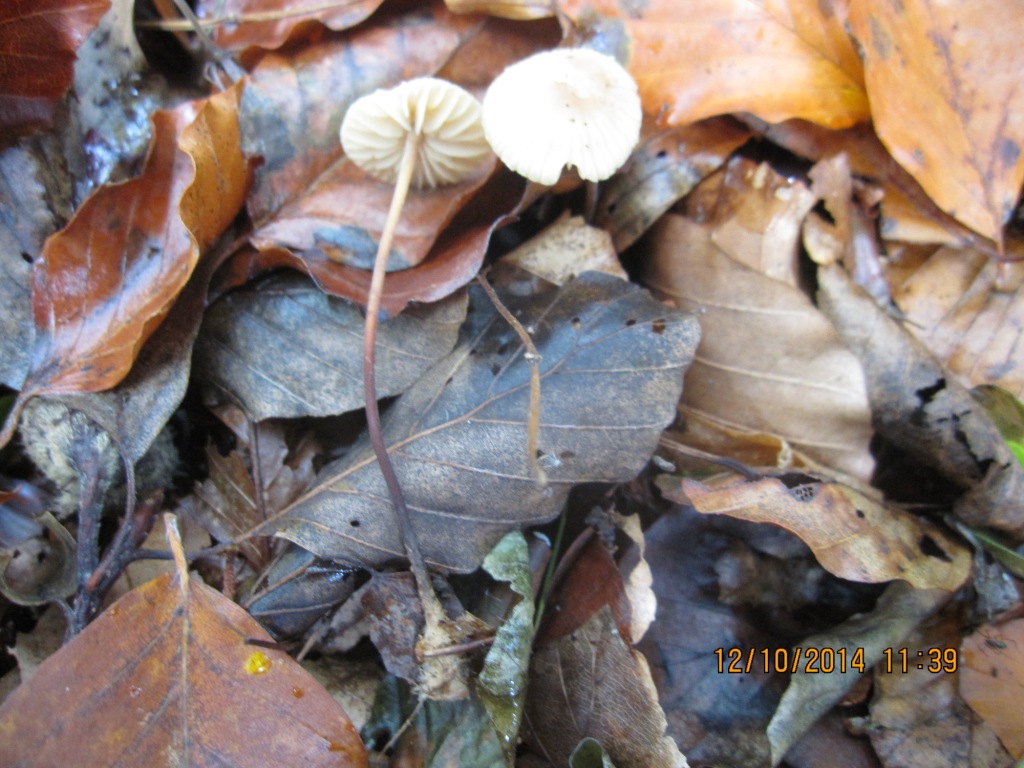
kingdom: Fungi
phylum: Basidiomycota
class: Agaricomycetes
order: Agaricales
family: Marasmiaceae
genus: Marasmius
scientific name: Marasmius torquescens
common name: filtfodet bruskhat
